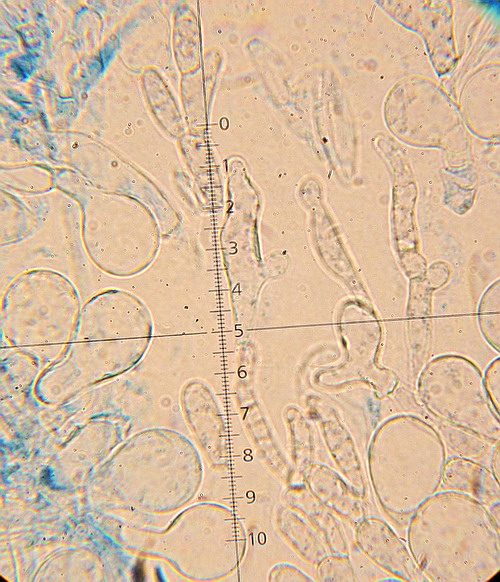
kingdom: Fungi
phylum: Basidiomycota
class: Agaricomycetes
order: Agaricales
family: Bolbitiaceae
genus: Bolbitius
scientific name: Bolbitius reticulatus
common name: netåret gulhat
